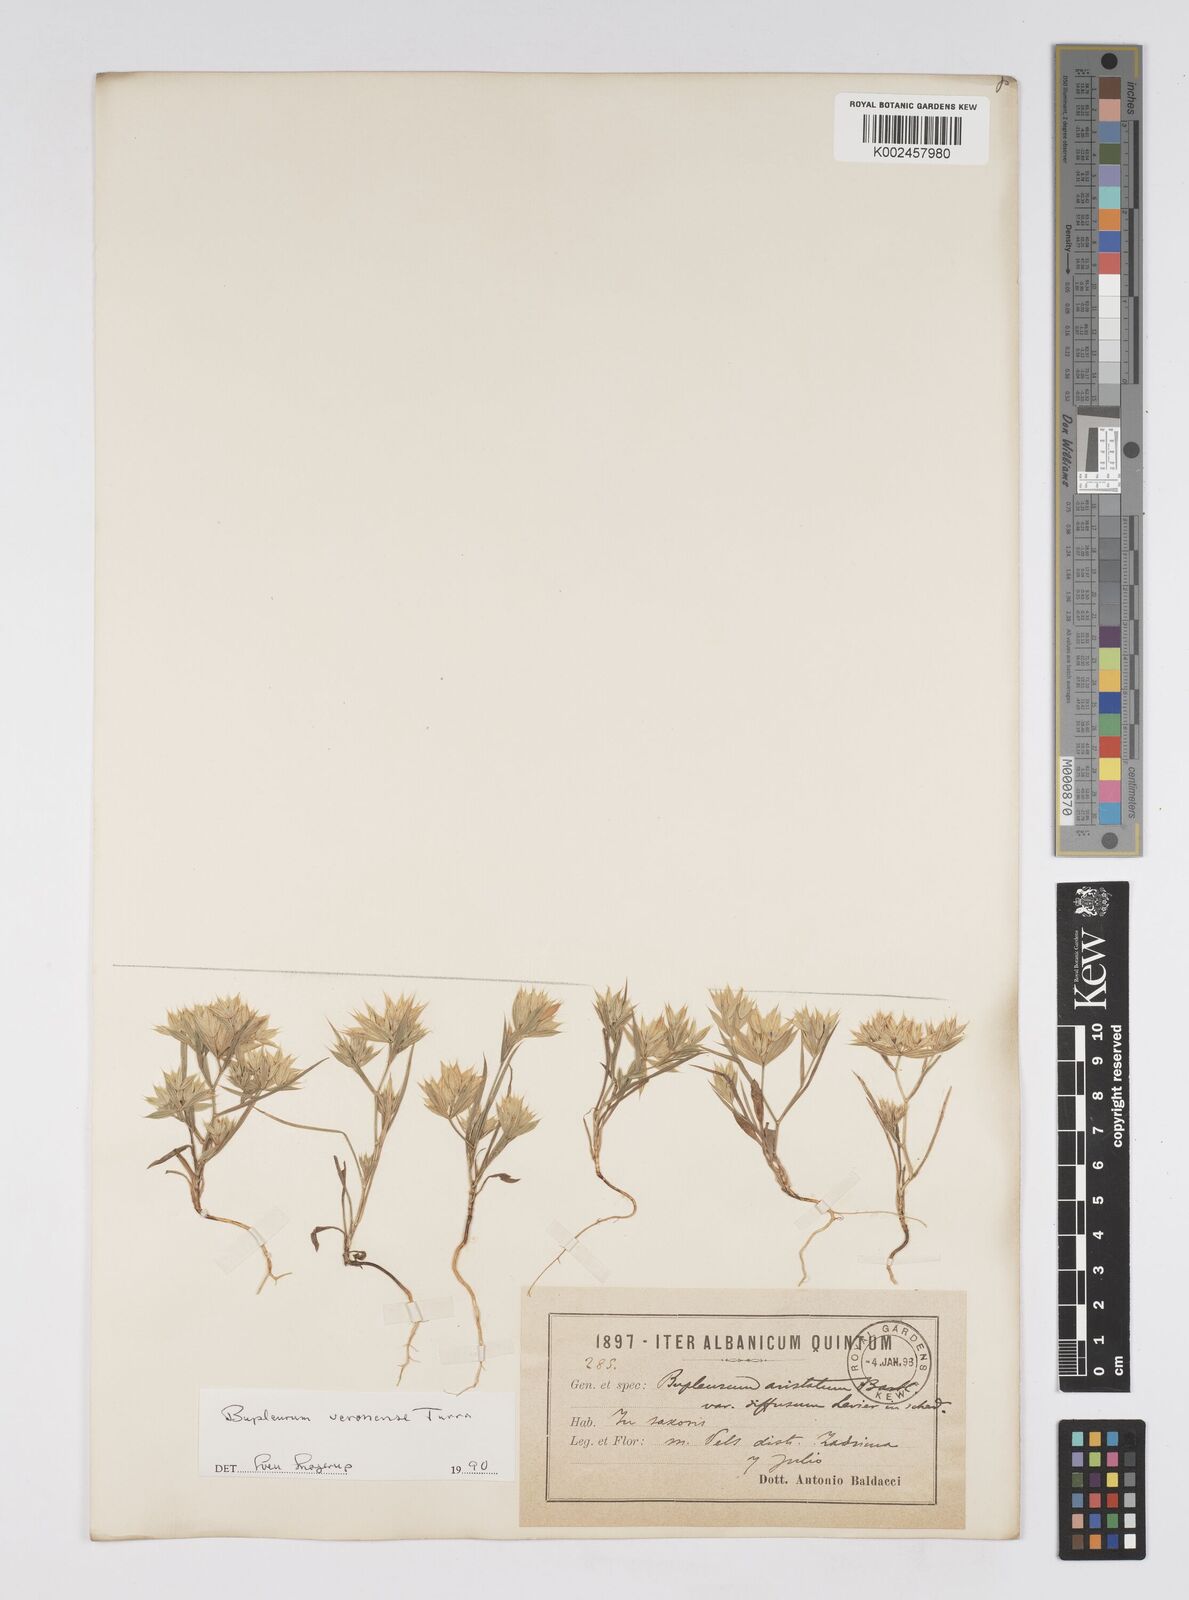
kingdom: Plantae
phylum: Tracheophyta
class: Magnoliopsida
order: Apiales
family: Apiaceae
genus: Bupleurum
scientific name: Bupleurum glumaceum
